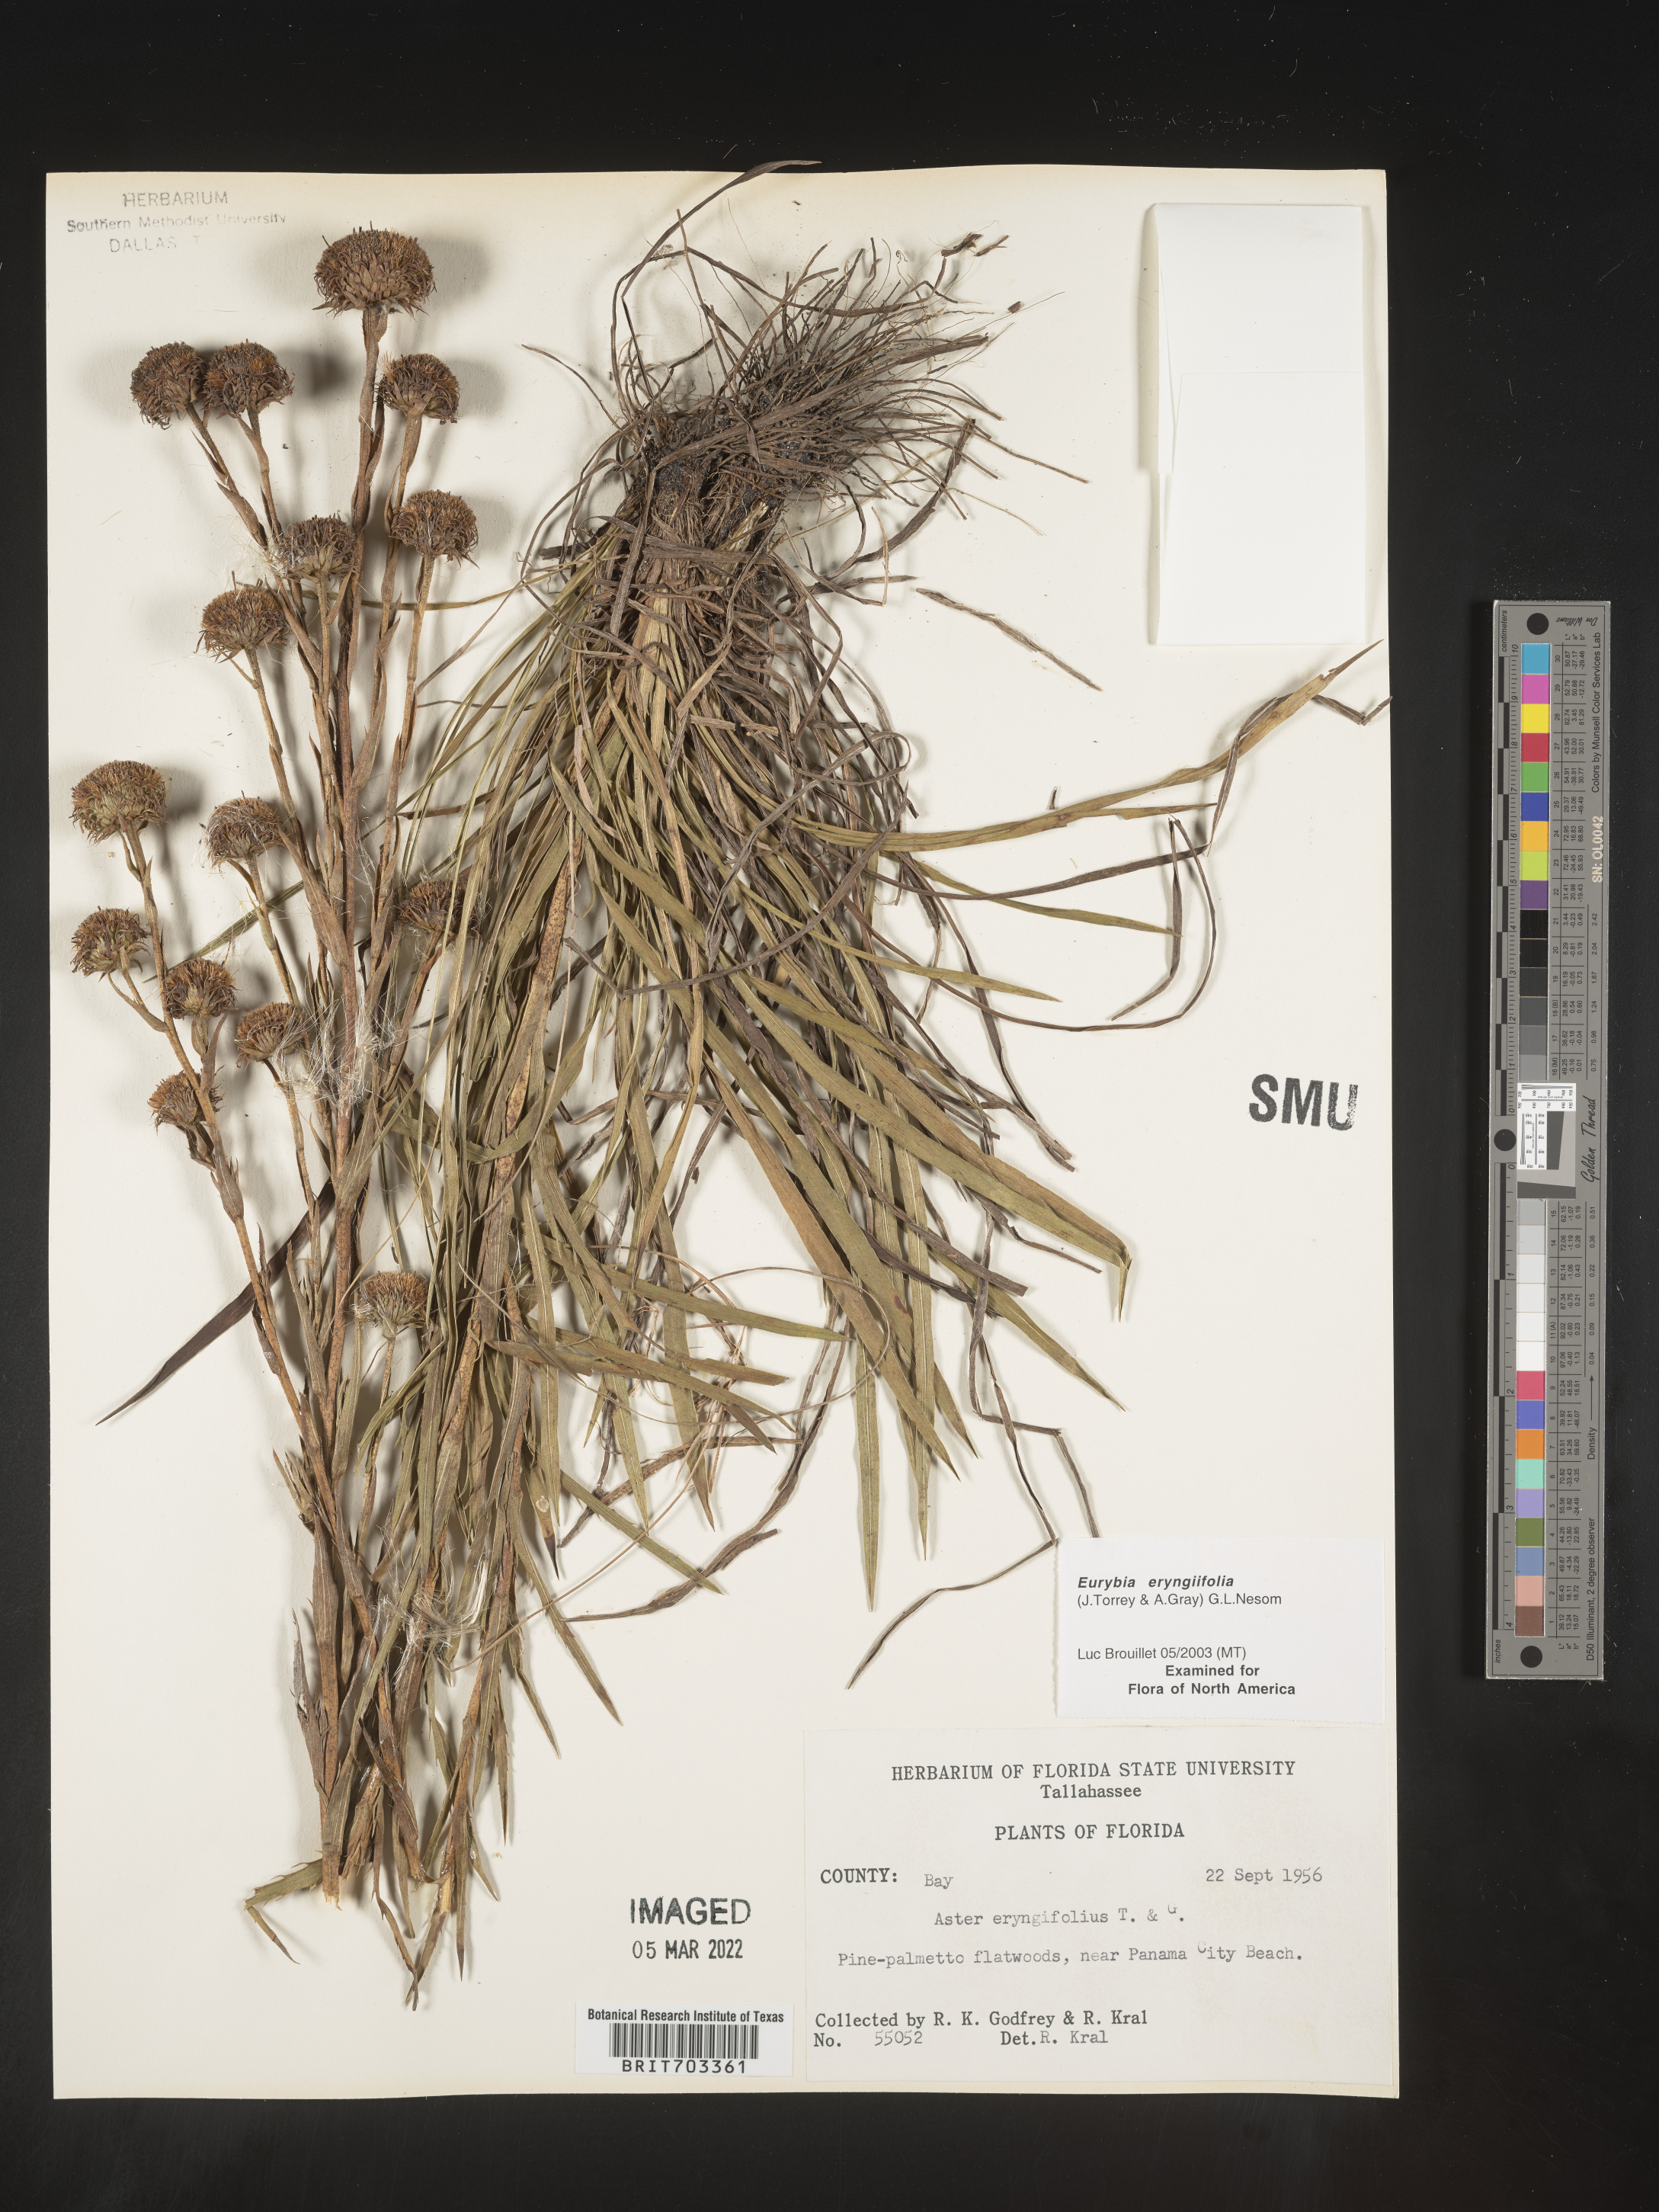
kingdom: Plantae
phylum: Tracheophyta
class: Magnoliopsida
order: Asterales
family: Asteraceae
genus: Eurybia
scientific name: Eurybia eryngiifolia
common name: Thistle-leaf aster
